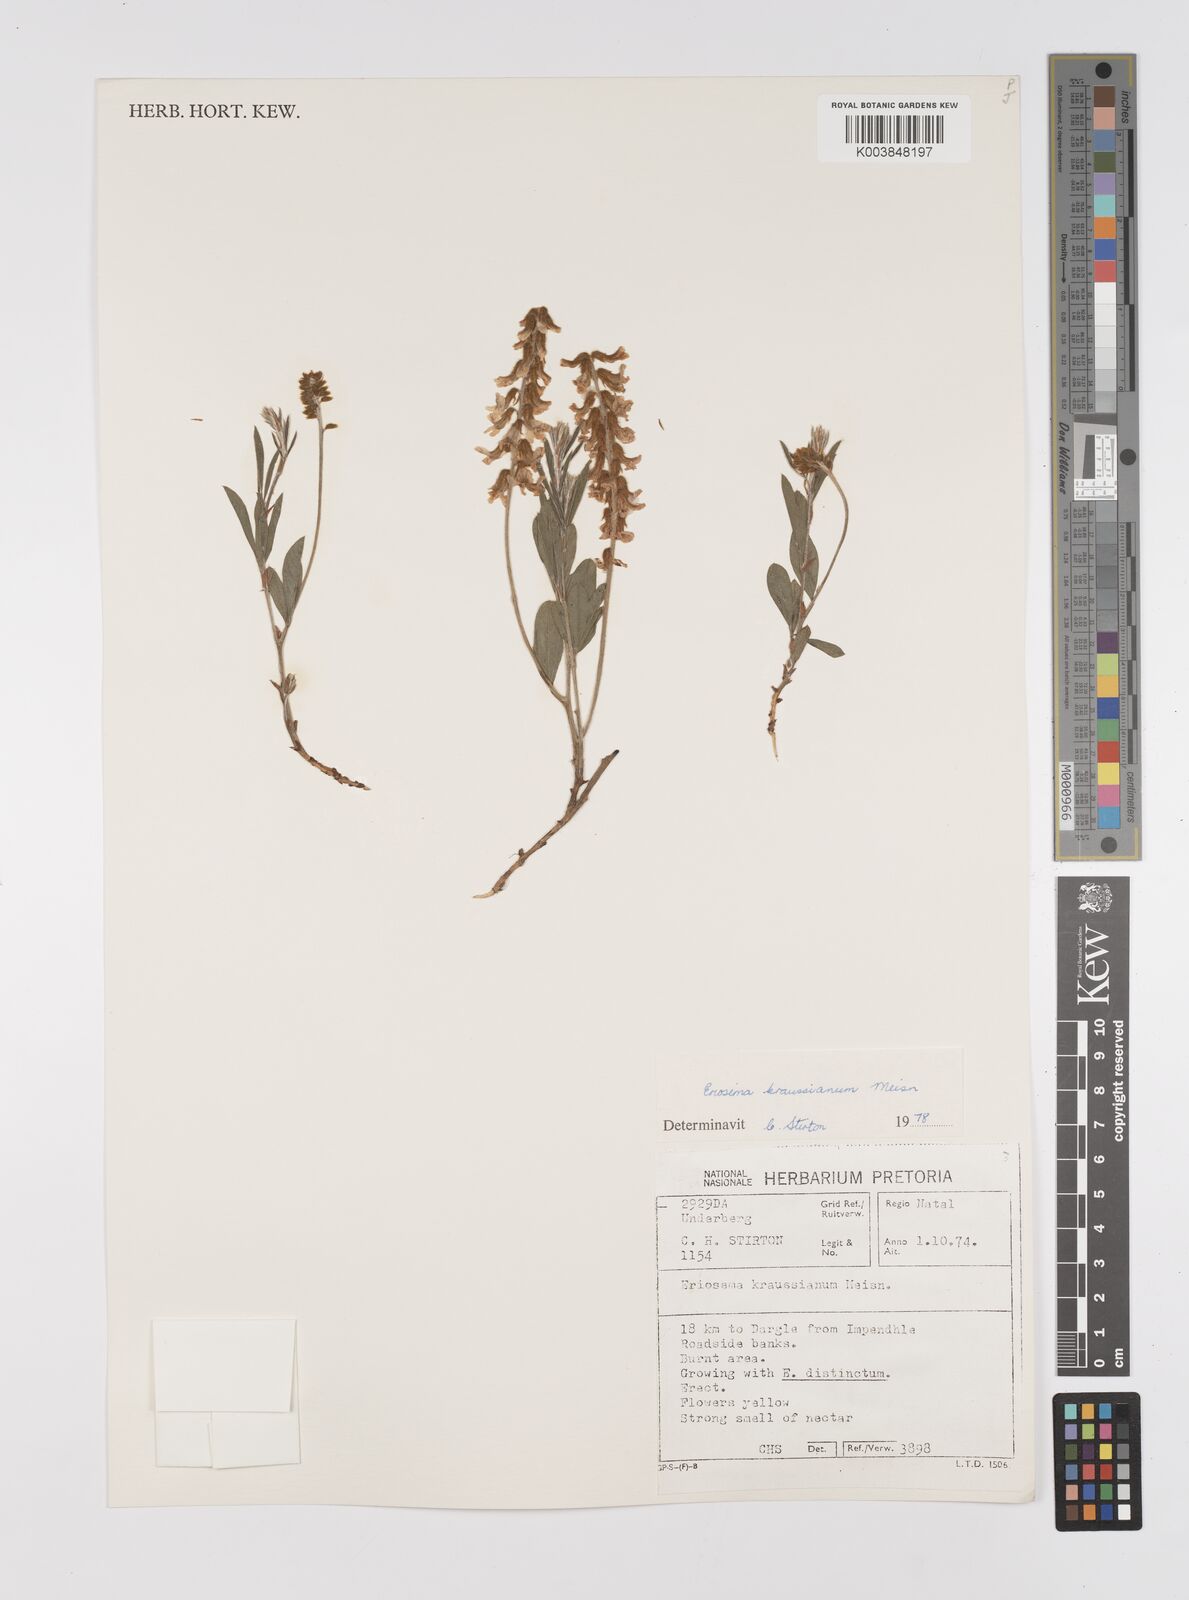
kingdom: Plantae
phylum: Tracheophyta
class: Magnoliopsida
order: Fabales
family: Fabaceae
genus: Eriosema
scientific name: Eriosema kraussianum
